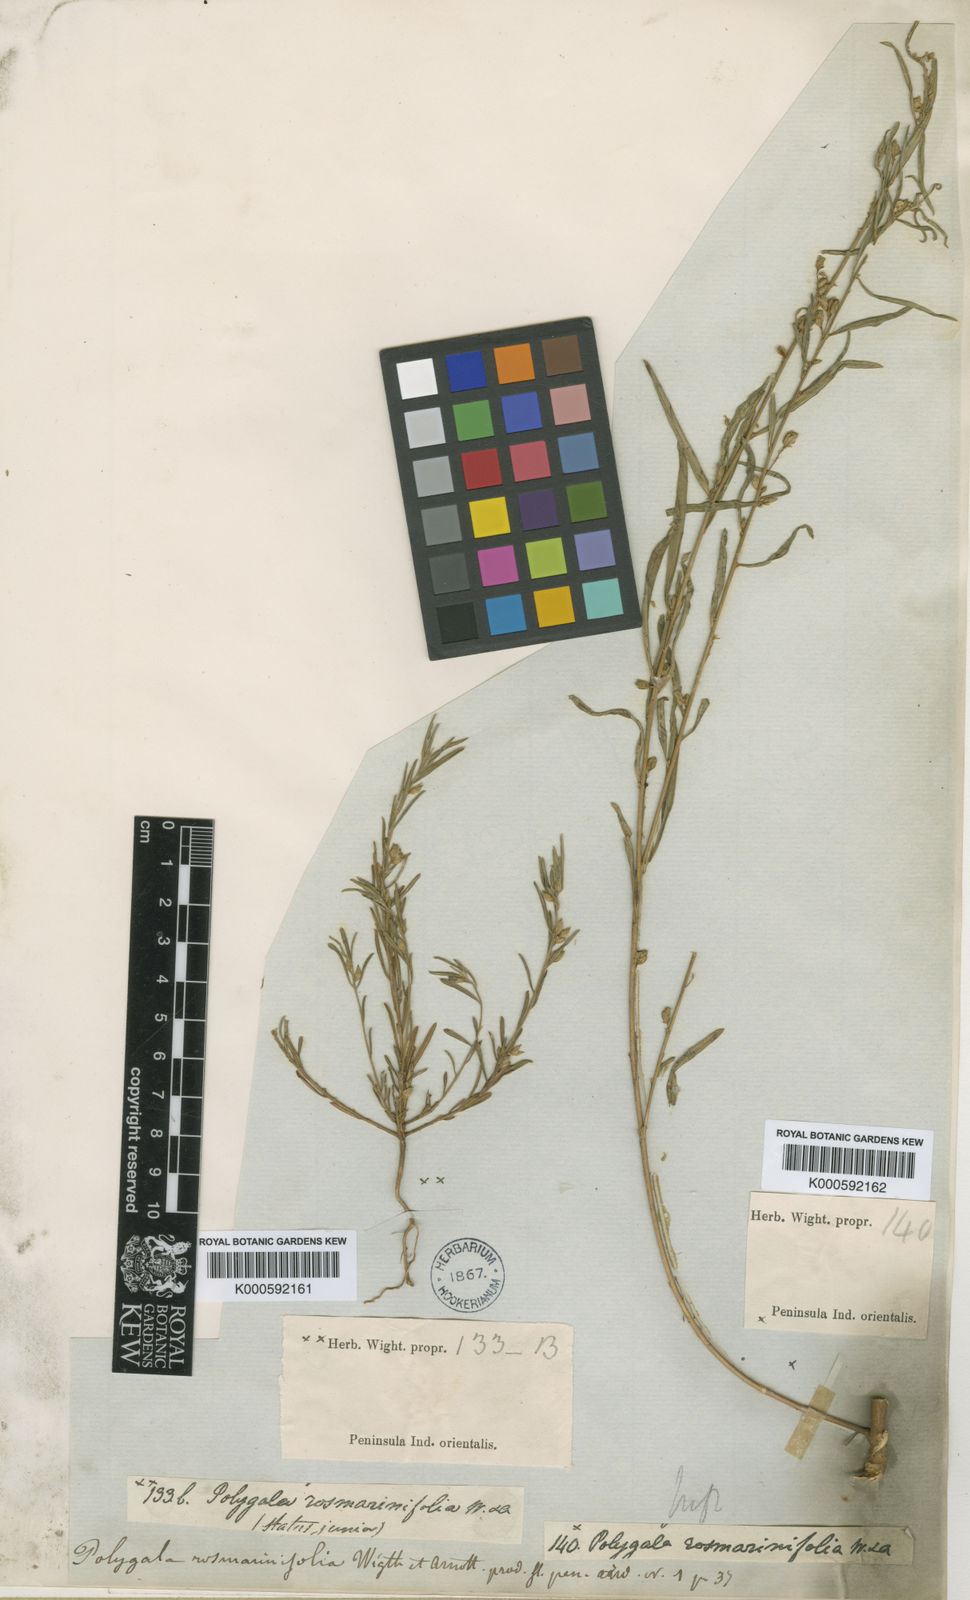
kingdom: Plantae
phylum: Tracheophyta
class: Magnoliopsida
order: Fabales
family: Polygalaceae
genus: Polygala
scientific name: Polygala rosmarinifolia
